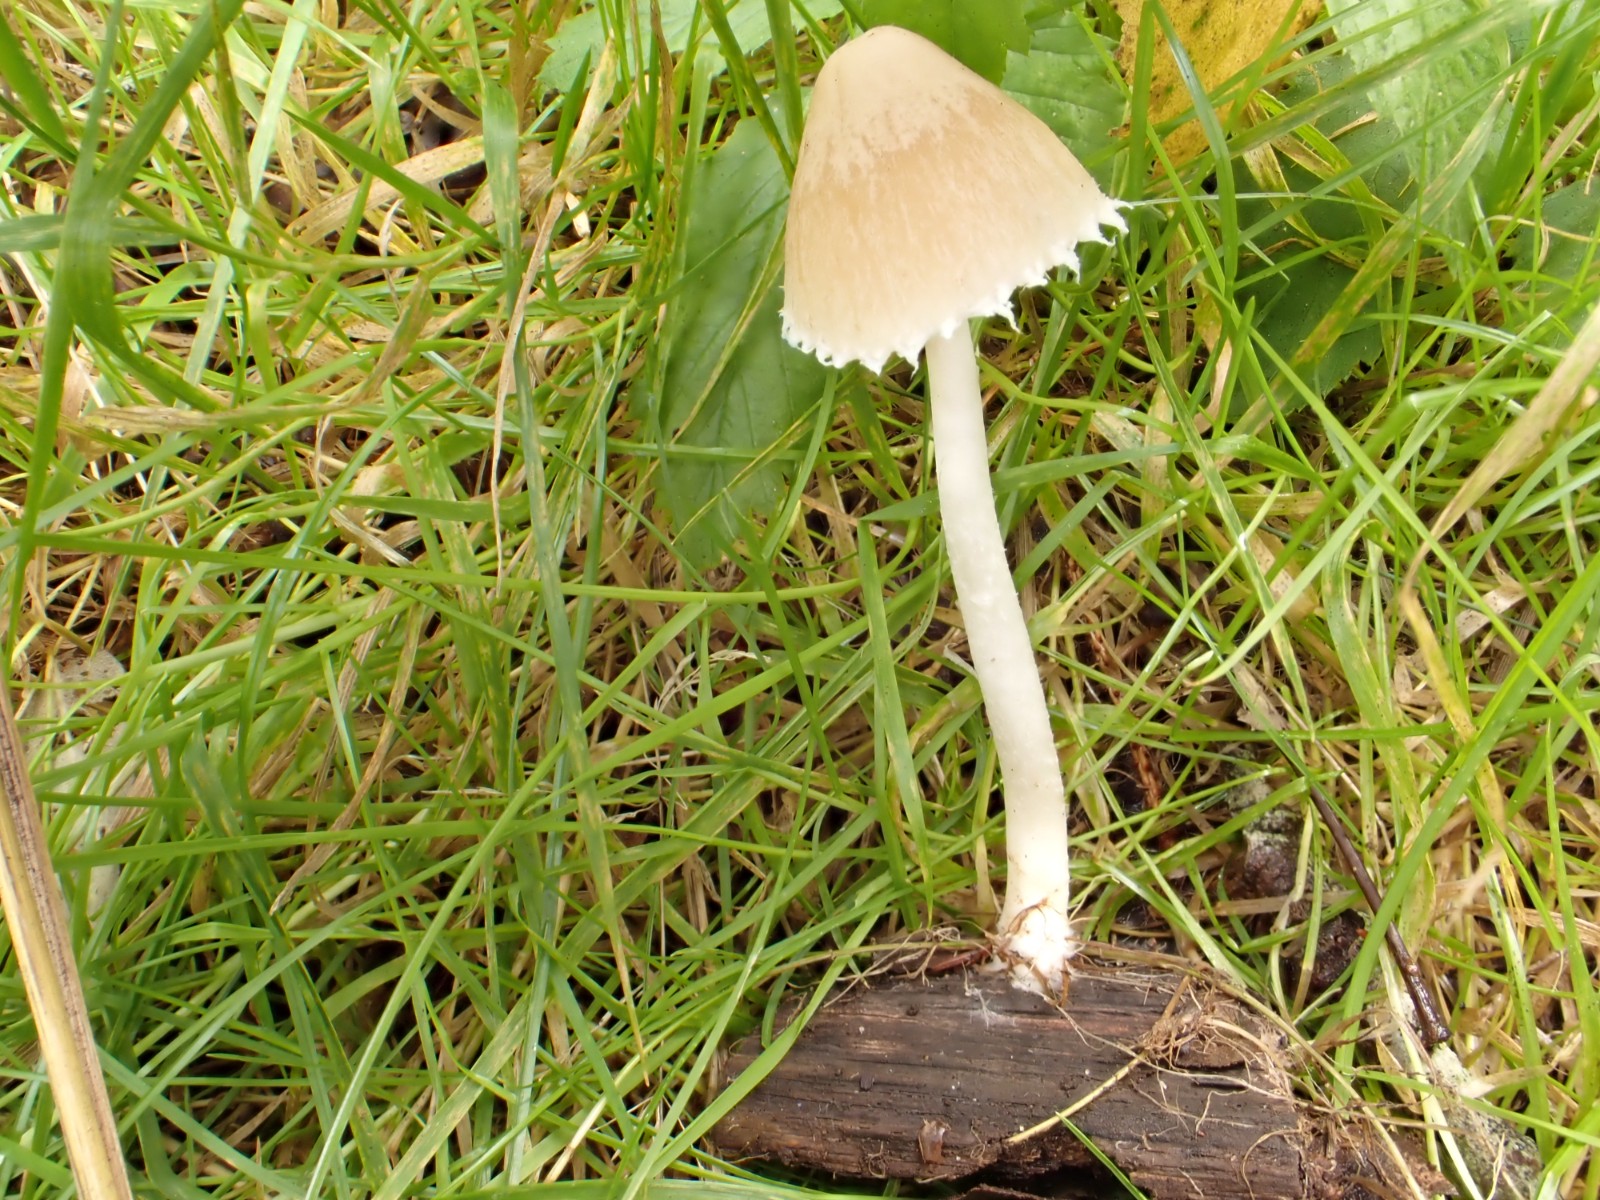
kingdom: Fungi
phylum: Basidiomycota
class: Agaricomycetes
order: Agaricales
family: Psathyrellaceae
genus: Candolleomyces
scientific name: Candolleomyces candolleanus
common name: Candolles mørkhat
